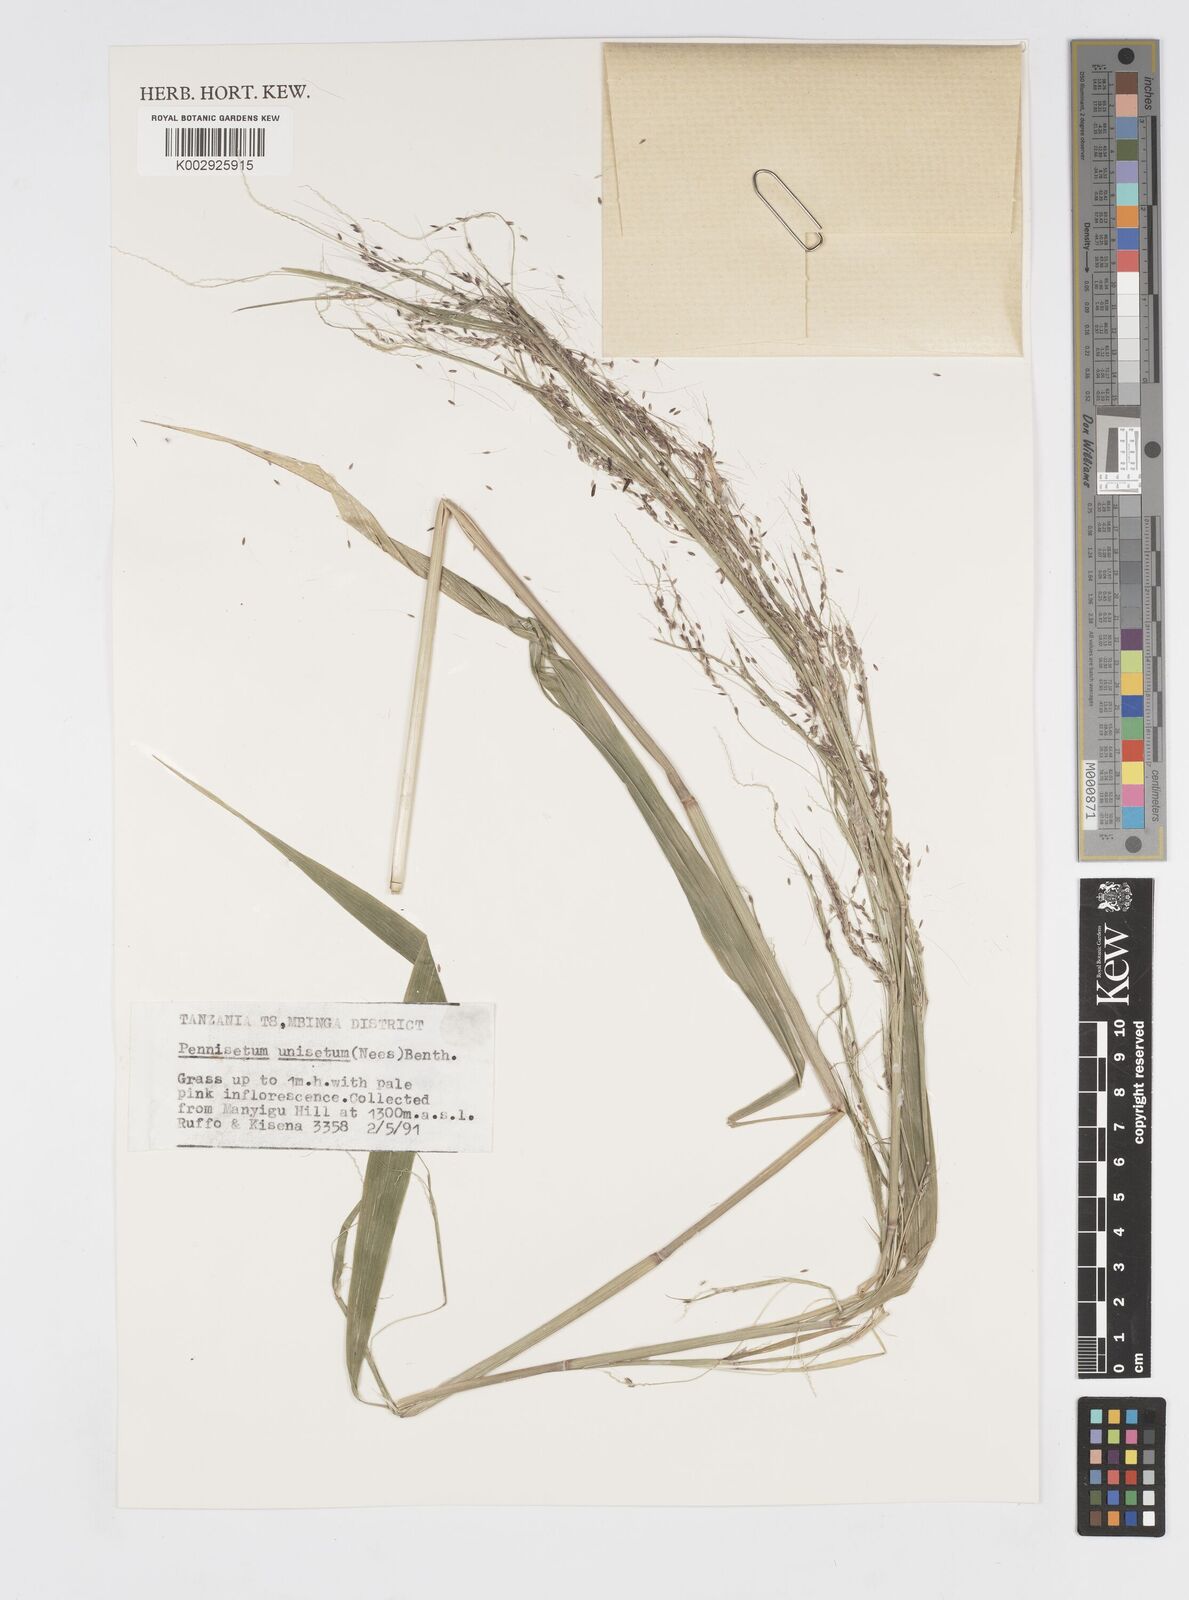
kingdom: Plantae
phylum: Tracheophyta
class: Liliopsida
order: Poales
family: Poaceae
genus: Cenchrus
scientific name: Cenchrus unisetus
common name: Natal grass
